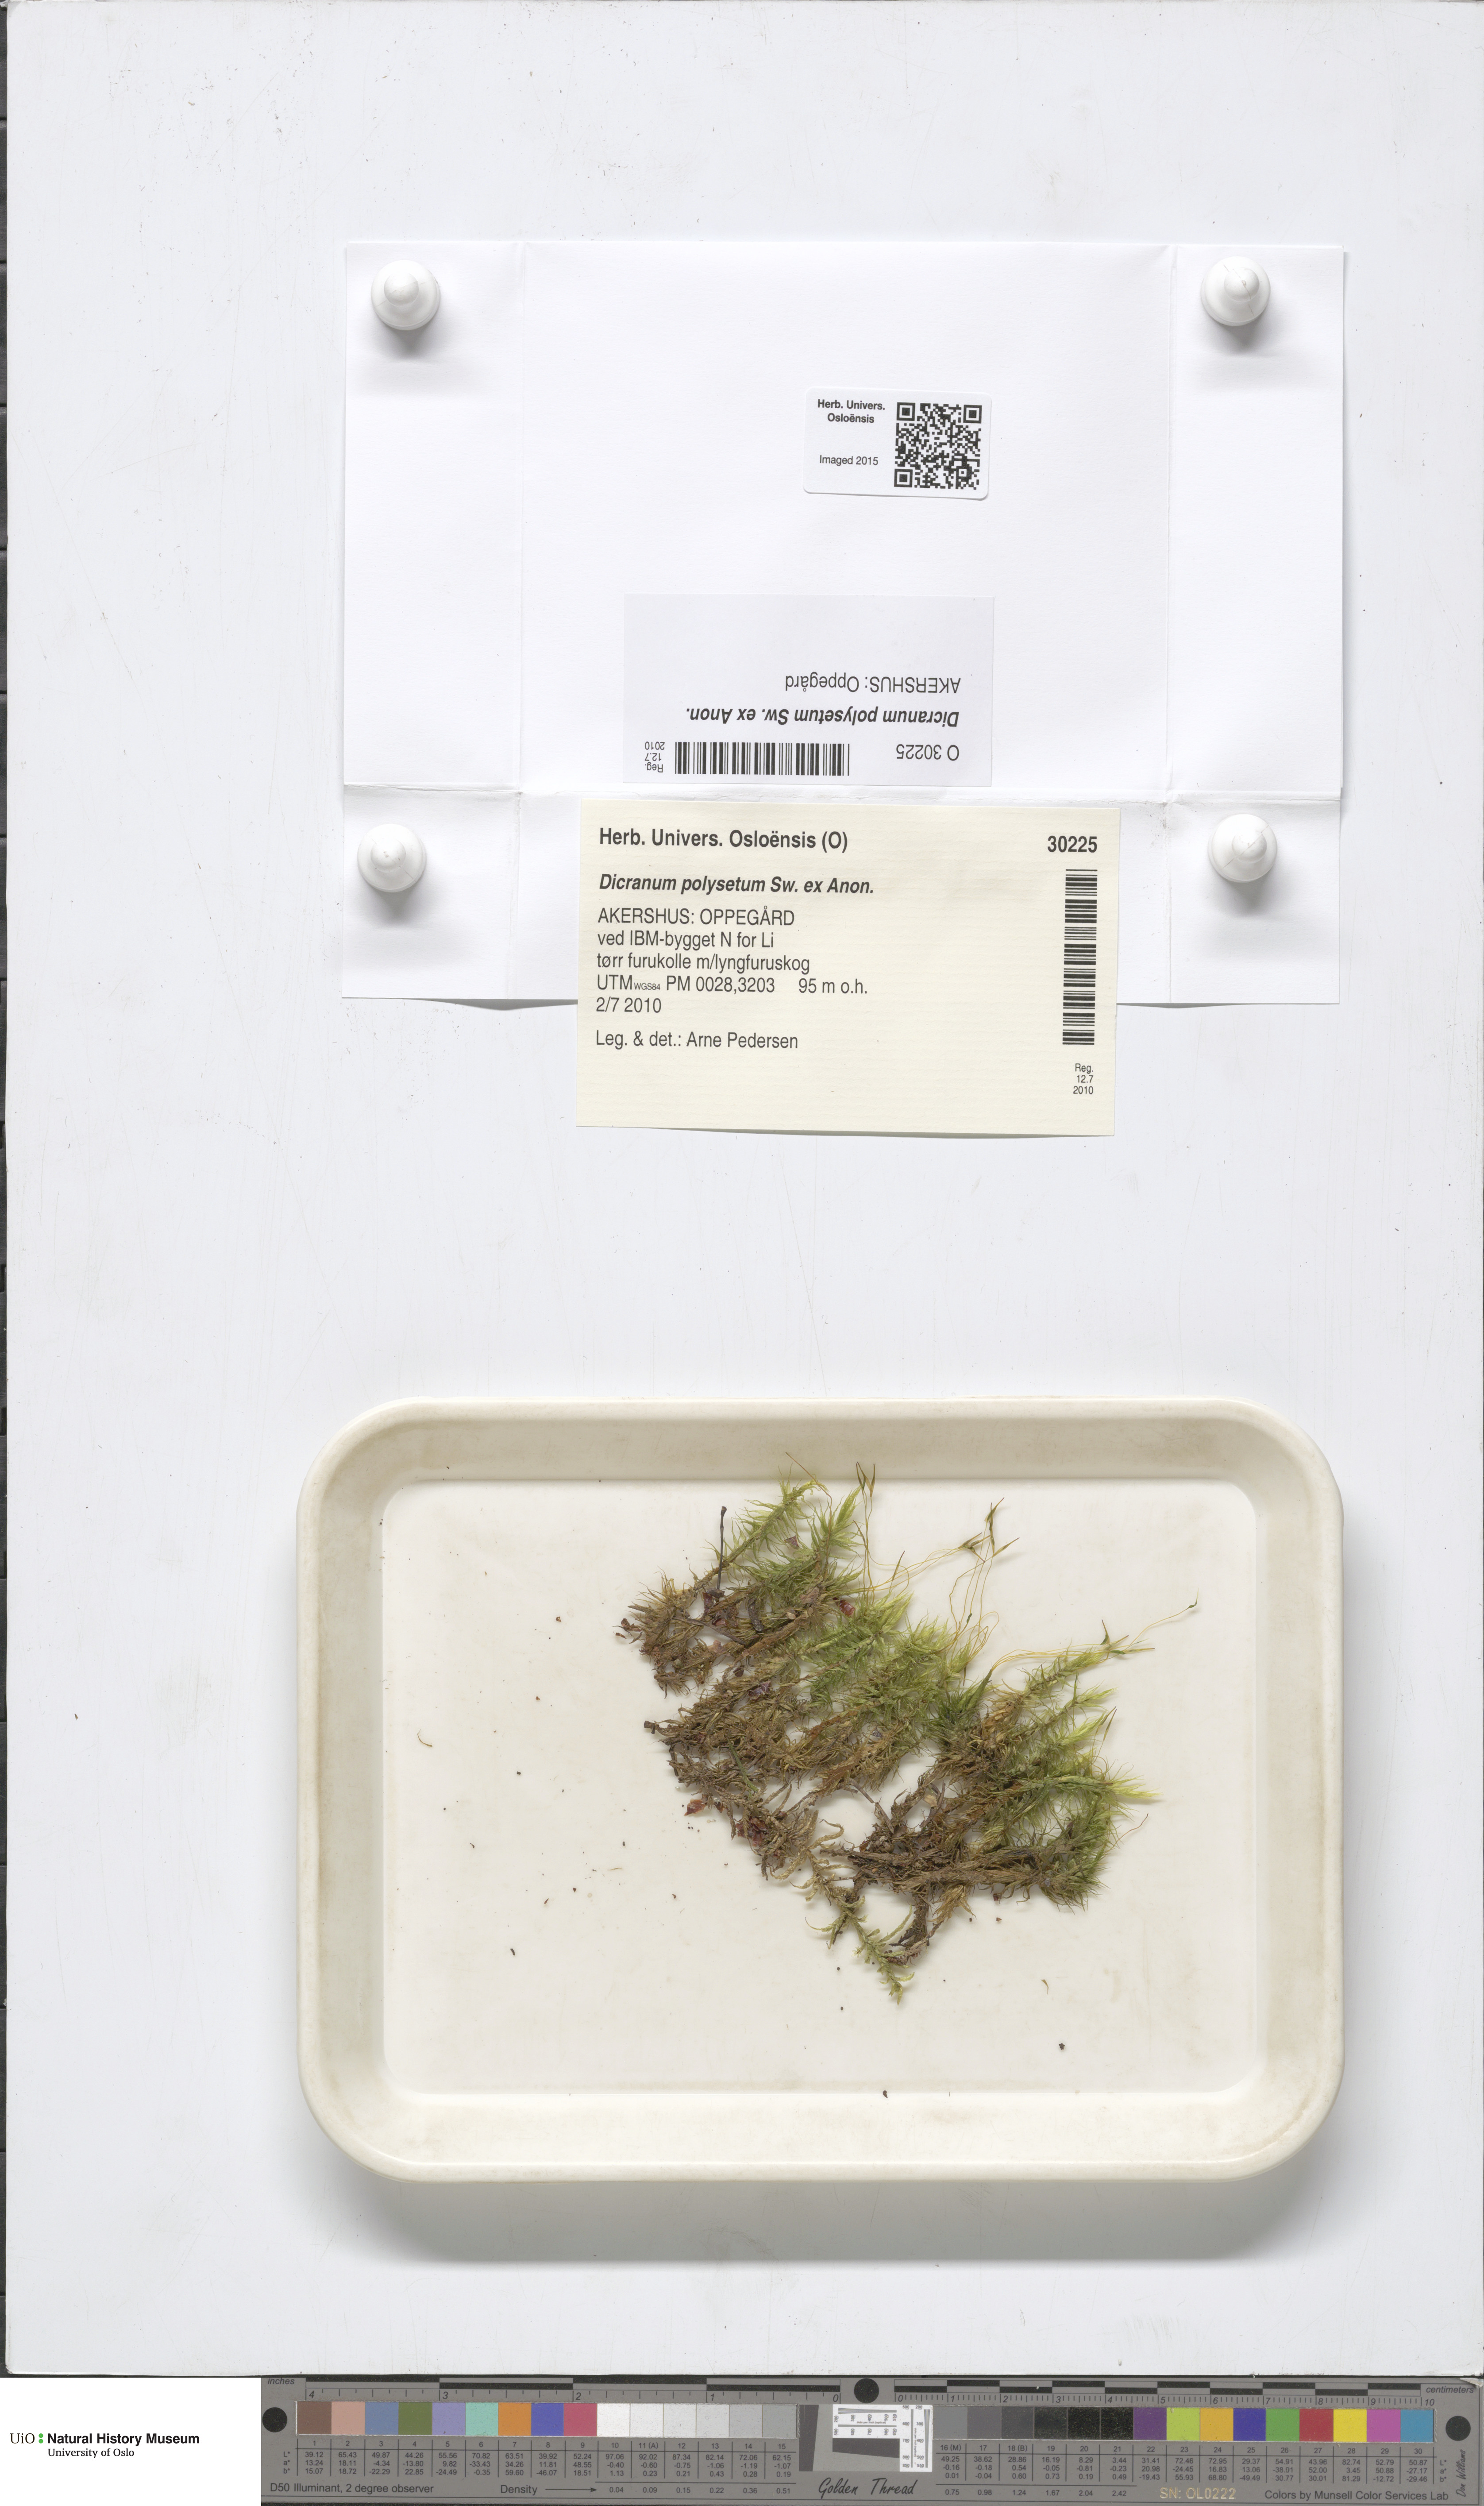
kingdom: Plantae
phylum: Bryophyta
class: Bryopsida
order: Dicranales
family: Dicranaceae
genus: Dicranum
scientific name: Dicranum polysetum
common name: Rugose fork-moss
